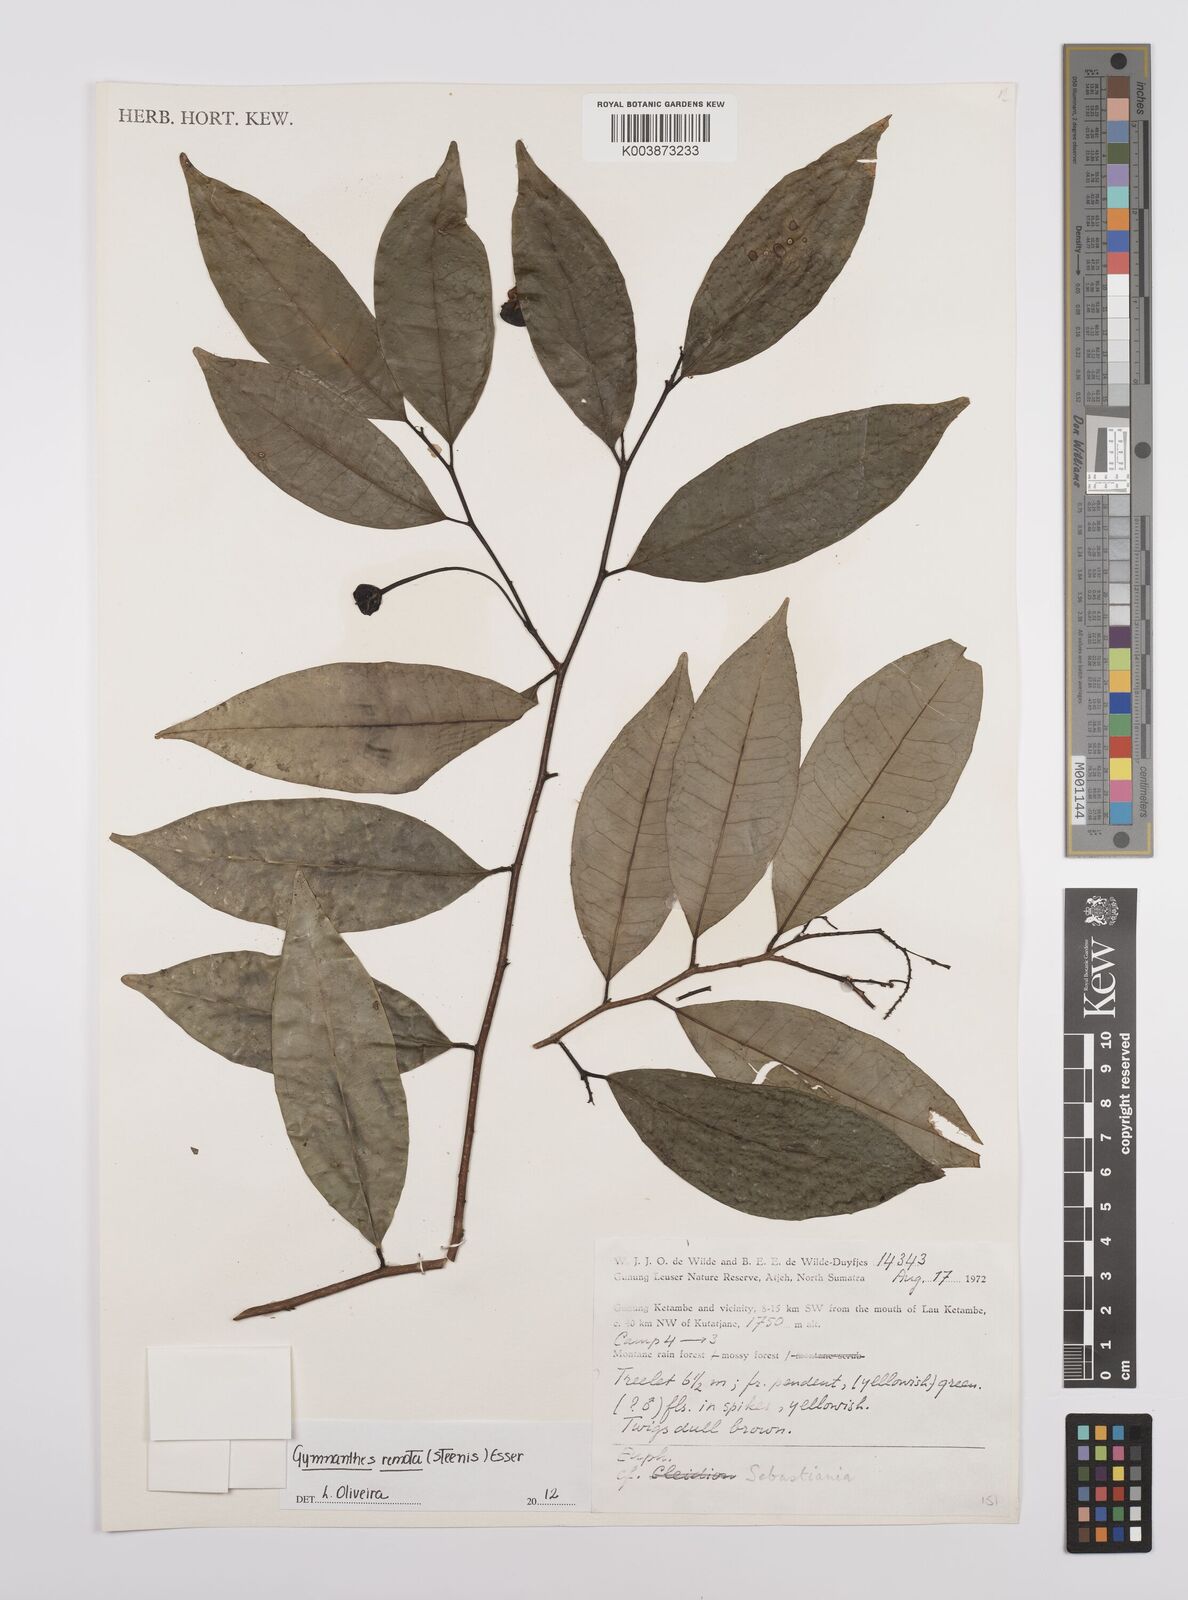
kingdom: Plantae
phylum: Tracheophyta
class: Magnoliopsida
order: Malpighiales
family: Euphorbiaceae
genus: Gymnanthes
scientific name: Gymnanthes remota
